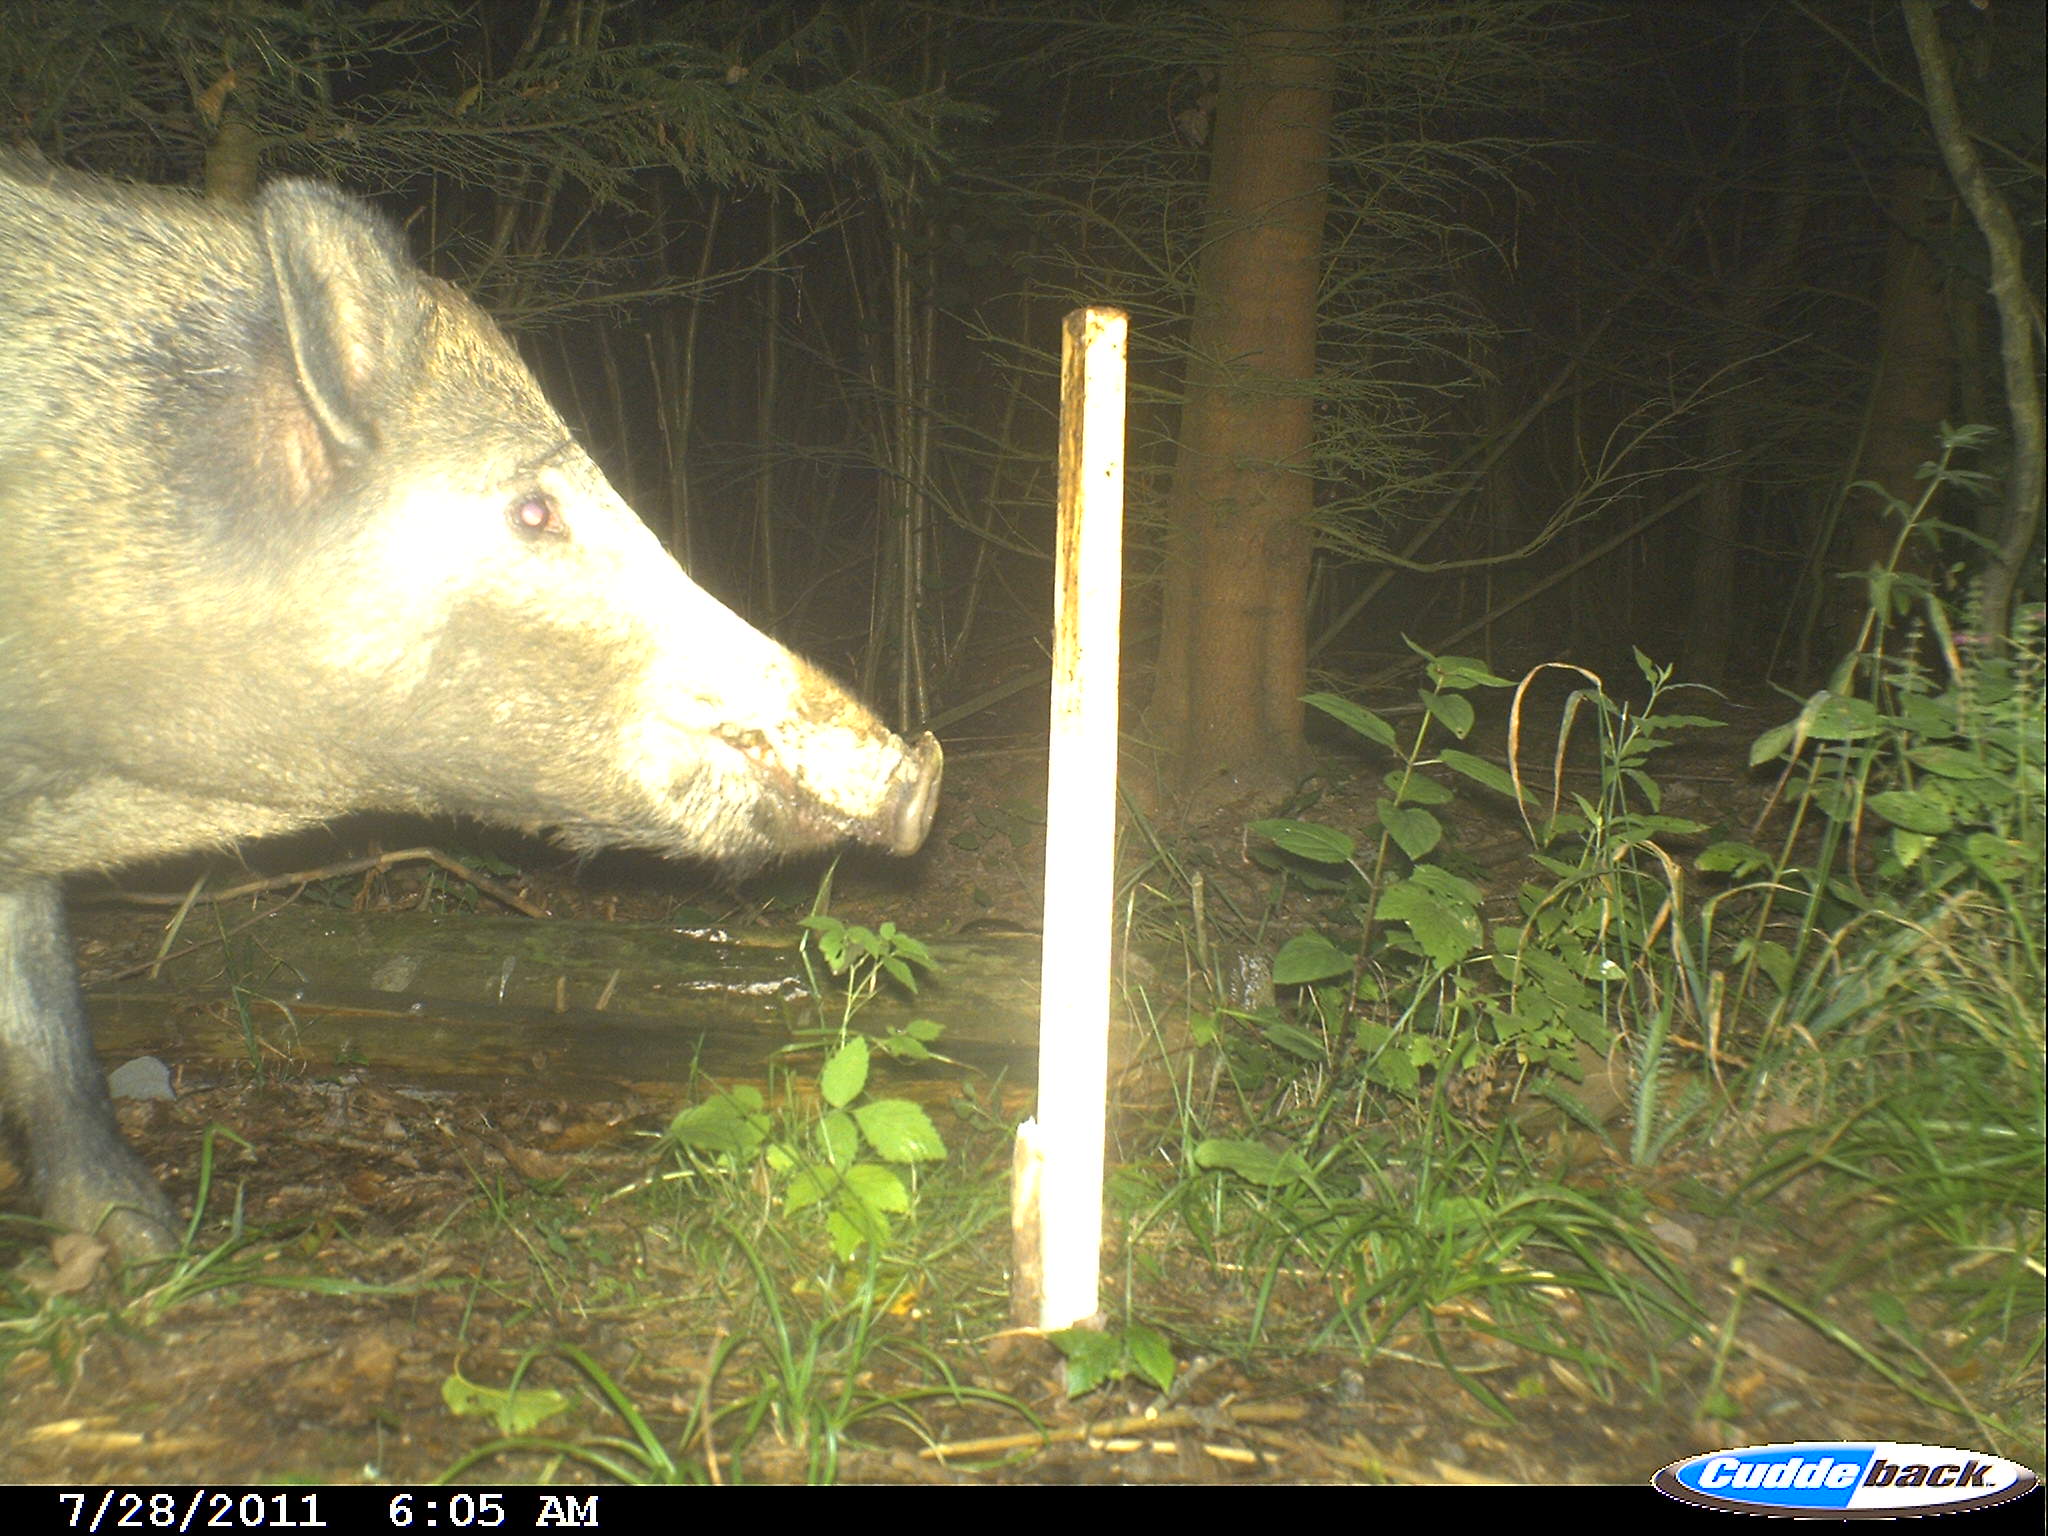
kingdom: Animalia
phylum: Chordata
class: Mammalia
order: Artiodactyla
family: Suidae
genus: Sus
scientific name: Sus scrofa
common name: Wild boar
